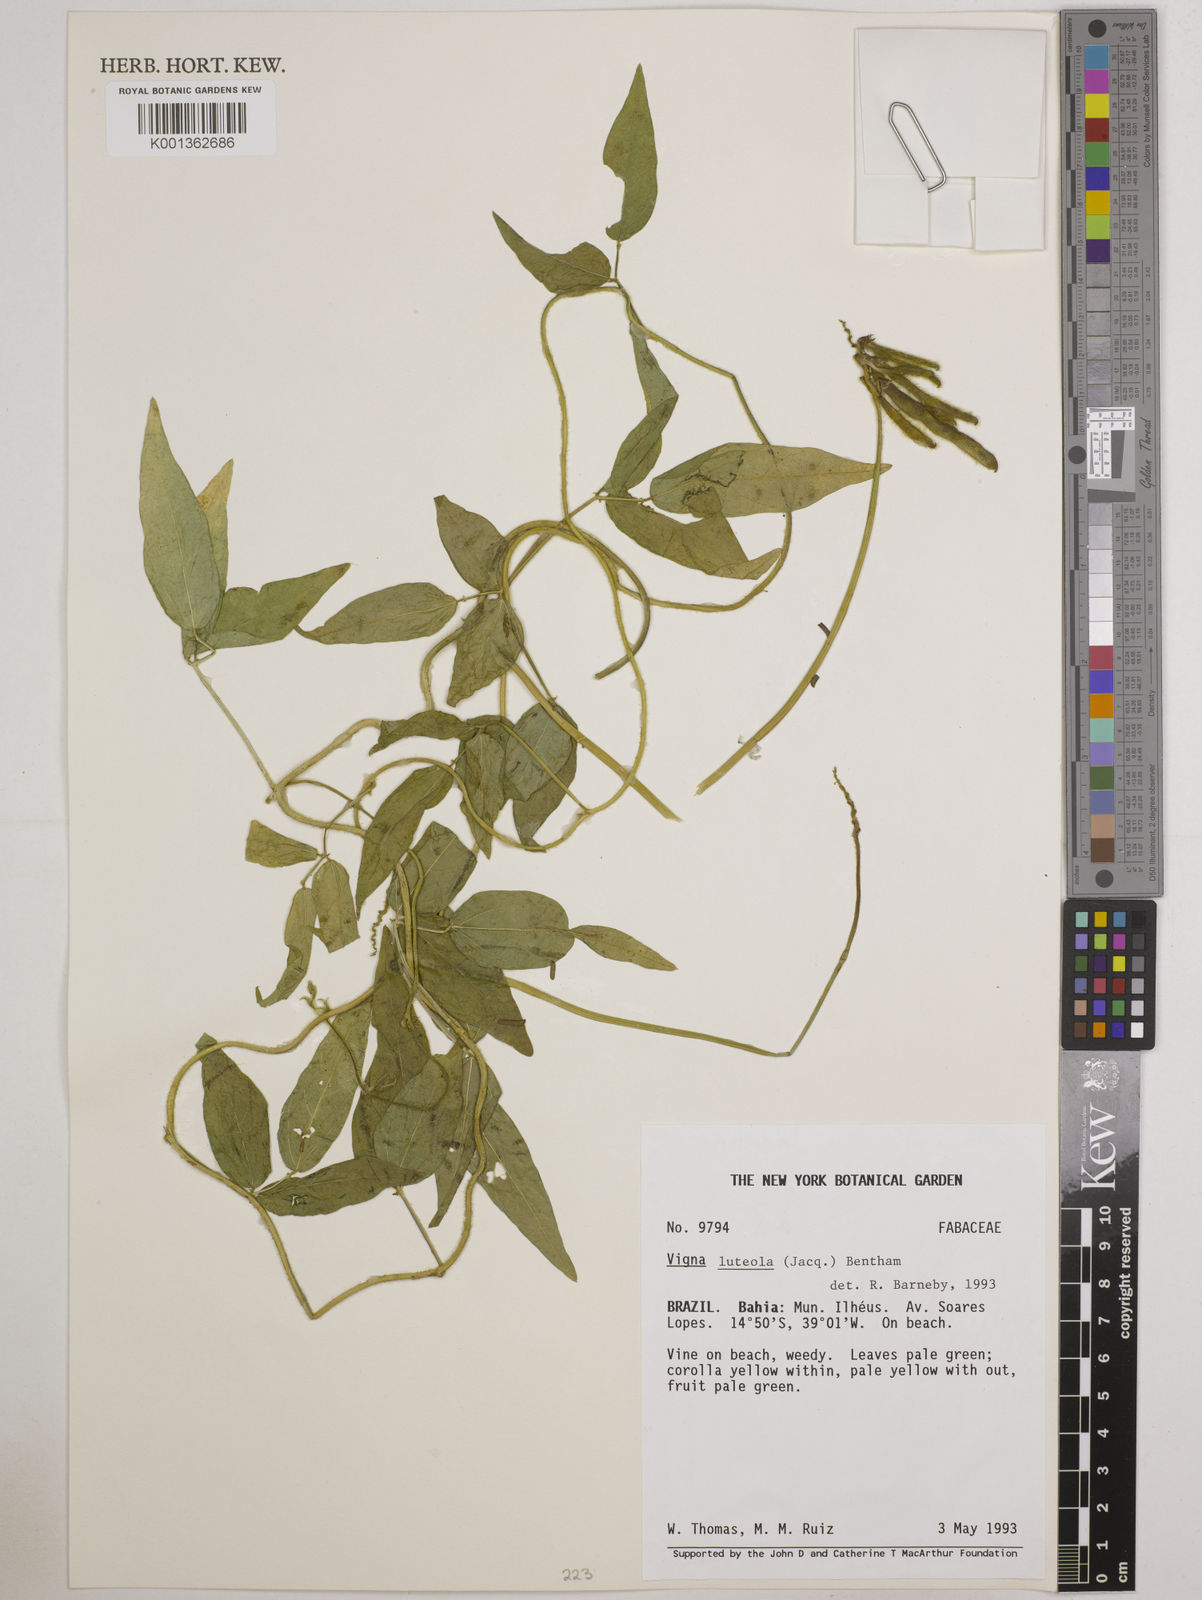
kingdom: Plantae
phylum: Tracheophyta
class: Magnoliopsida
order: Fabales
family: Fabaceae
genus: Vigna
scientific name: Vigna luteola
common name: Hairypod cowpea
